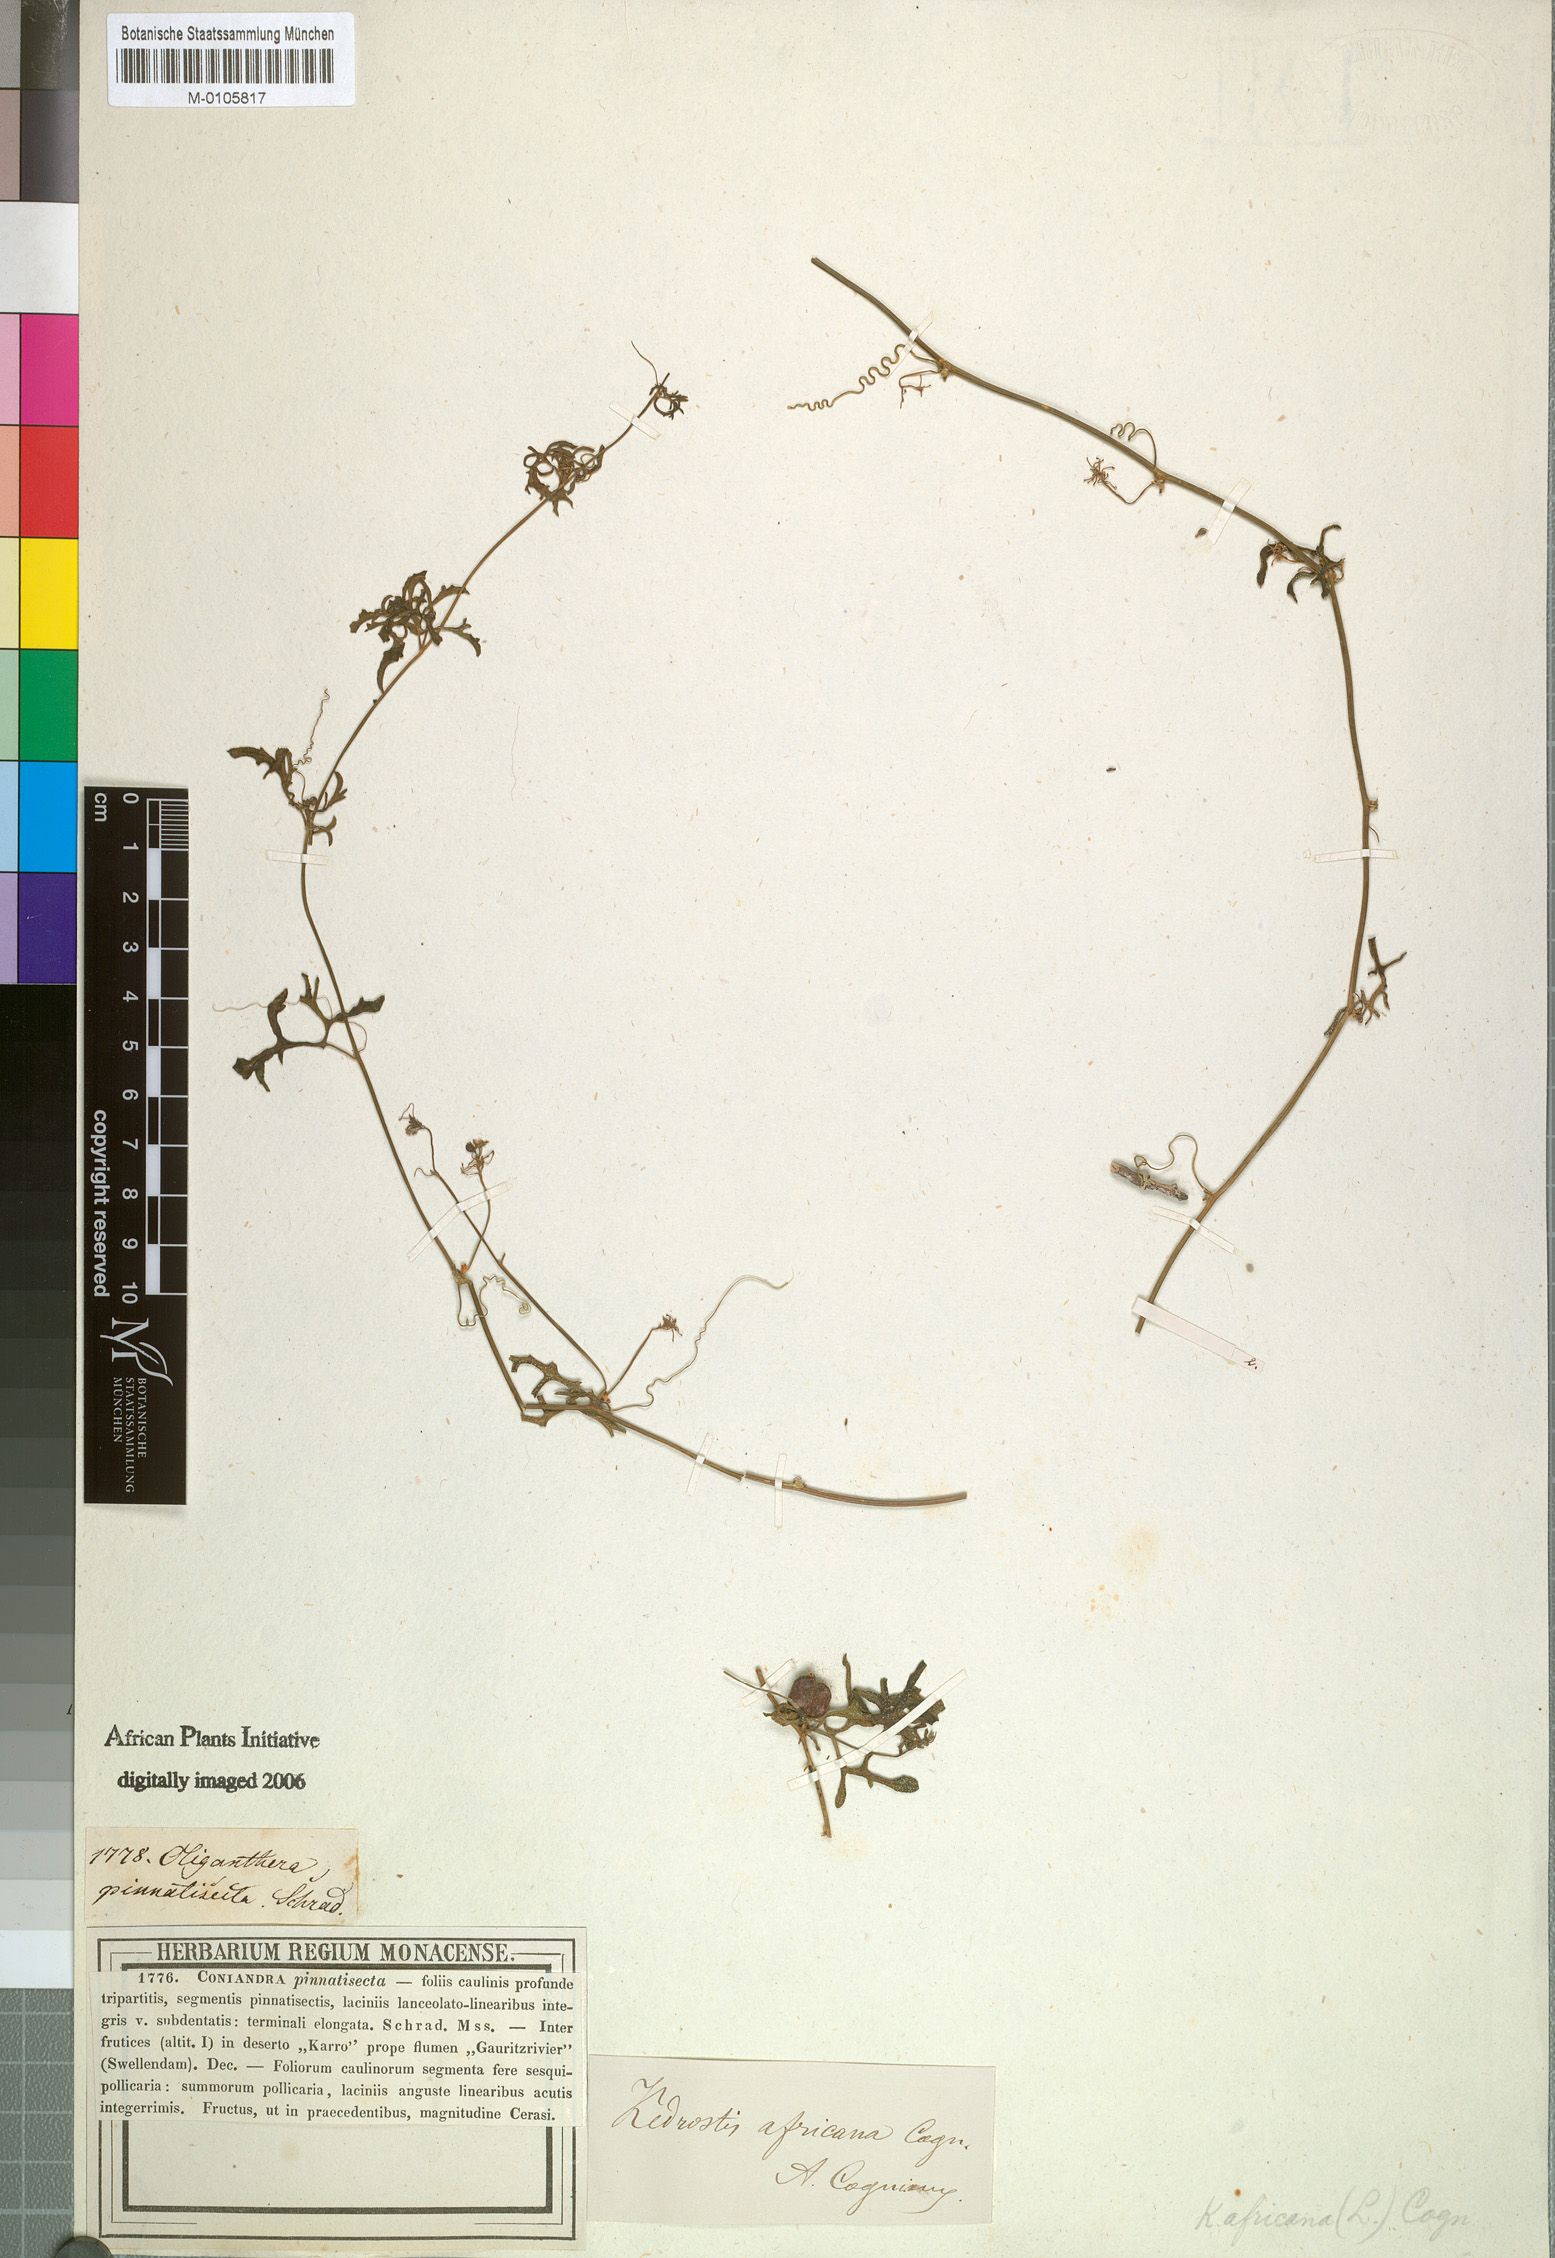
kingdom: Plantae
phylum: Tracheophyta
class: Magnoliopsida
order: Cucurbitales
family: Cucurbitaceae
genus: Kedrostis
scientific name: Kedrostis africana
